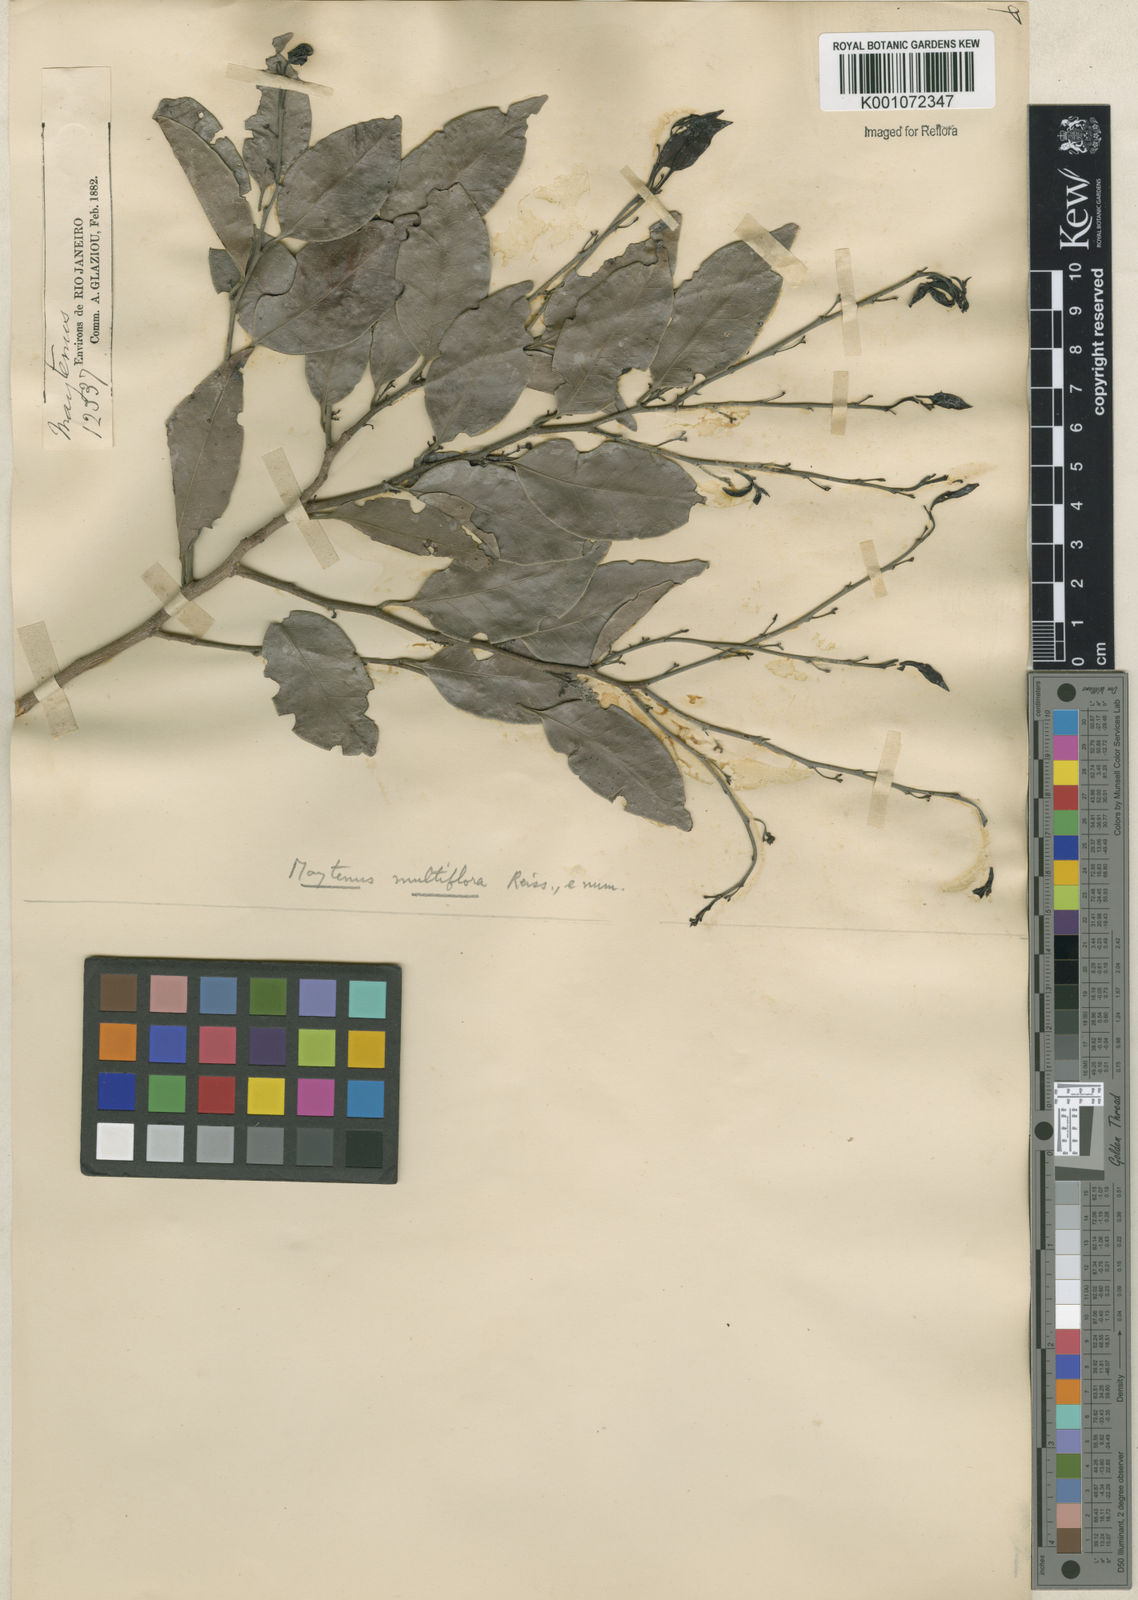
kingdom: Plantae
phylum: Tracheophyta
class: Magnoliopsida
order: Celastrales
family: Celastraceae
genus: Monteverdia
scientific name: Monteverdia macrocarpa
